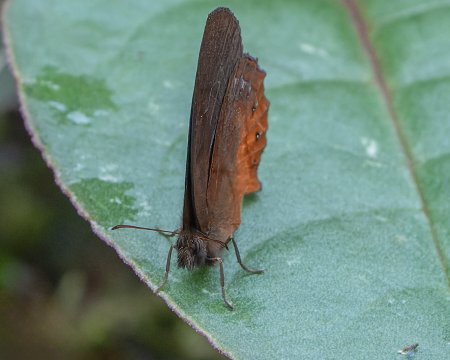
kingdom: Animalia
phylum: Arthropoda
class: Insecta
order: Lepidoptera
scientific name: Lepidoptera
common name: Butterflies
